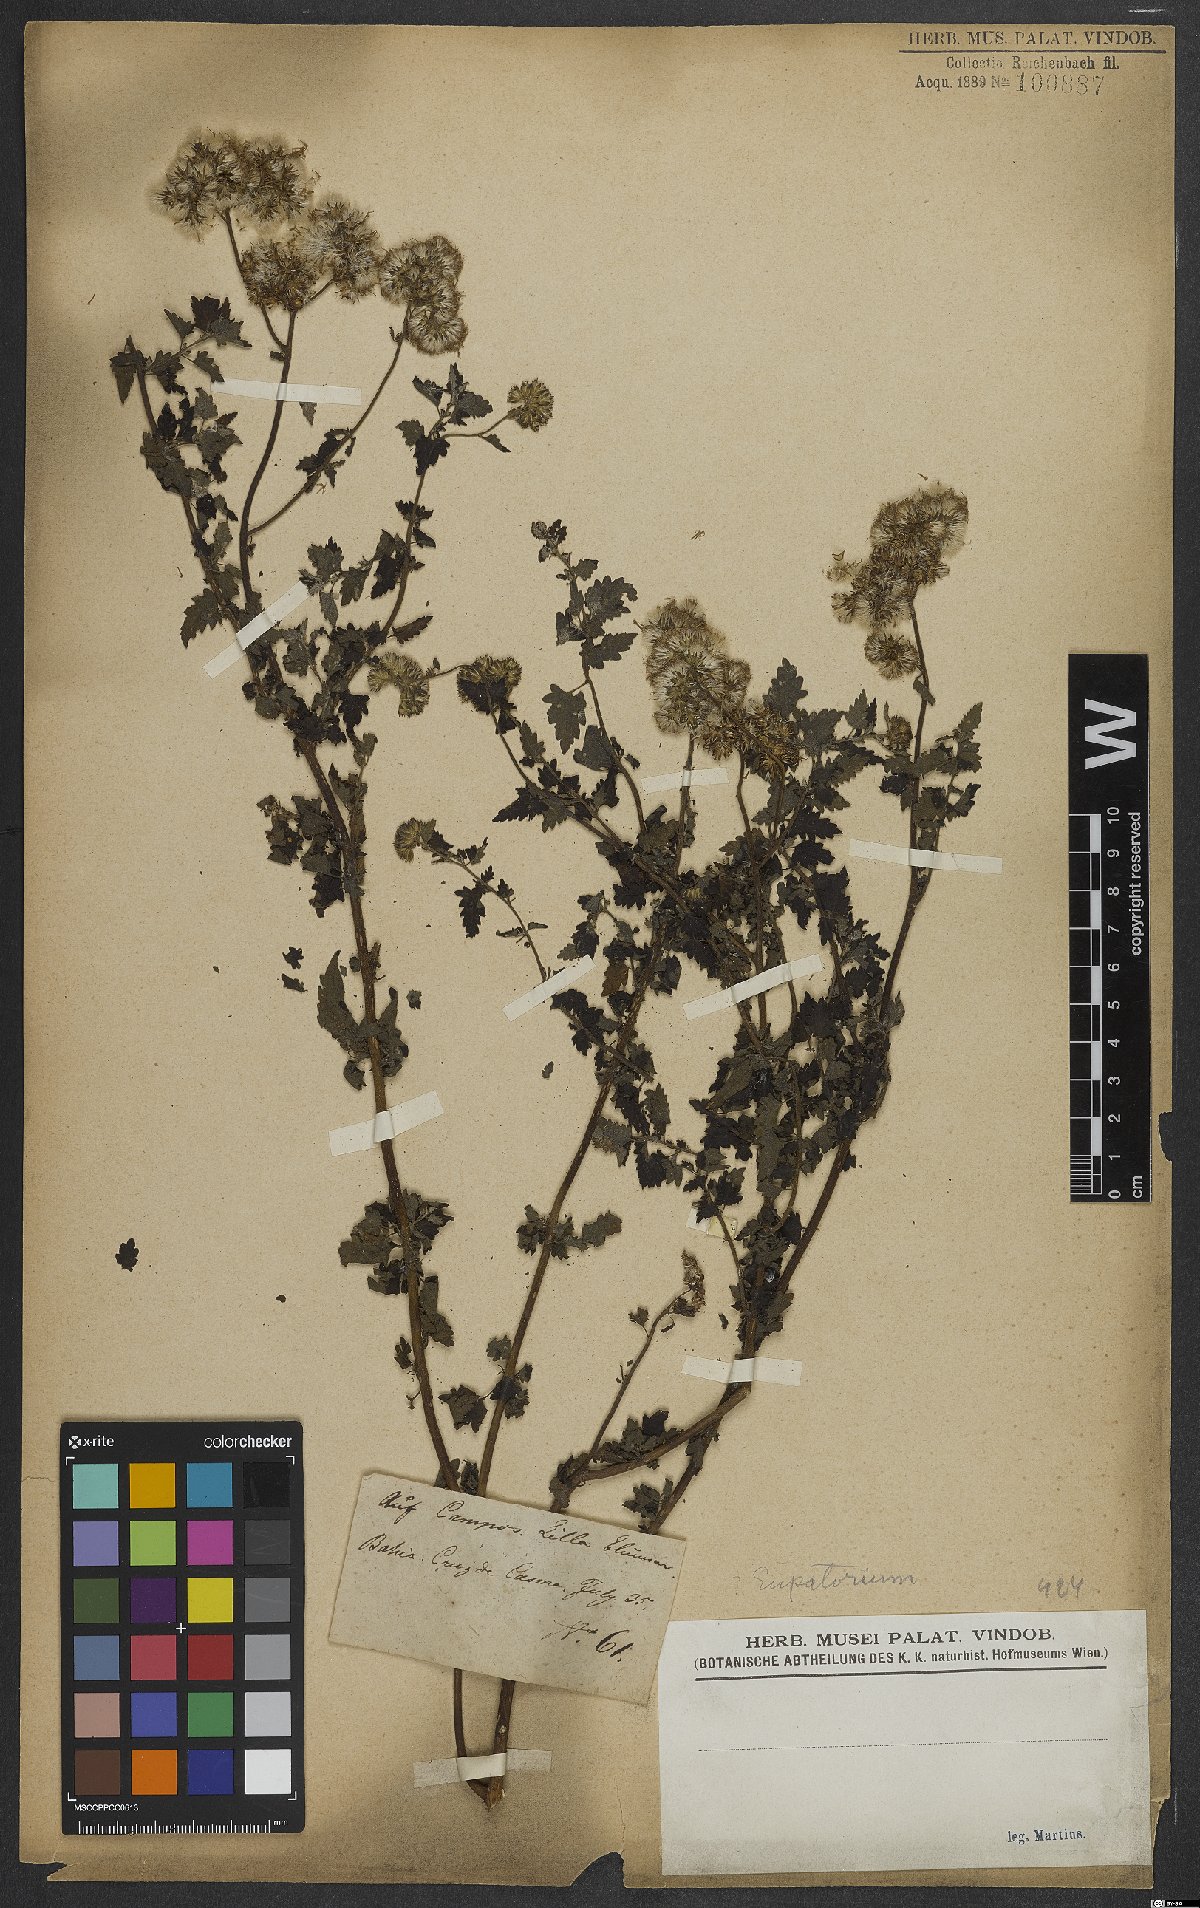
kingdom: Plantae
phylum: Tracheophyta
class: Magnoliopsida
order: Asterales
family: Asteraceae
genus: Eupatorium
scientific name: Eupatorium
